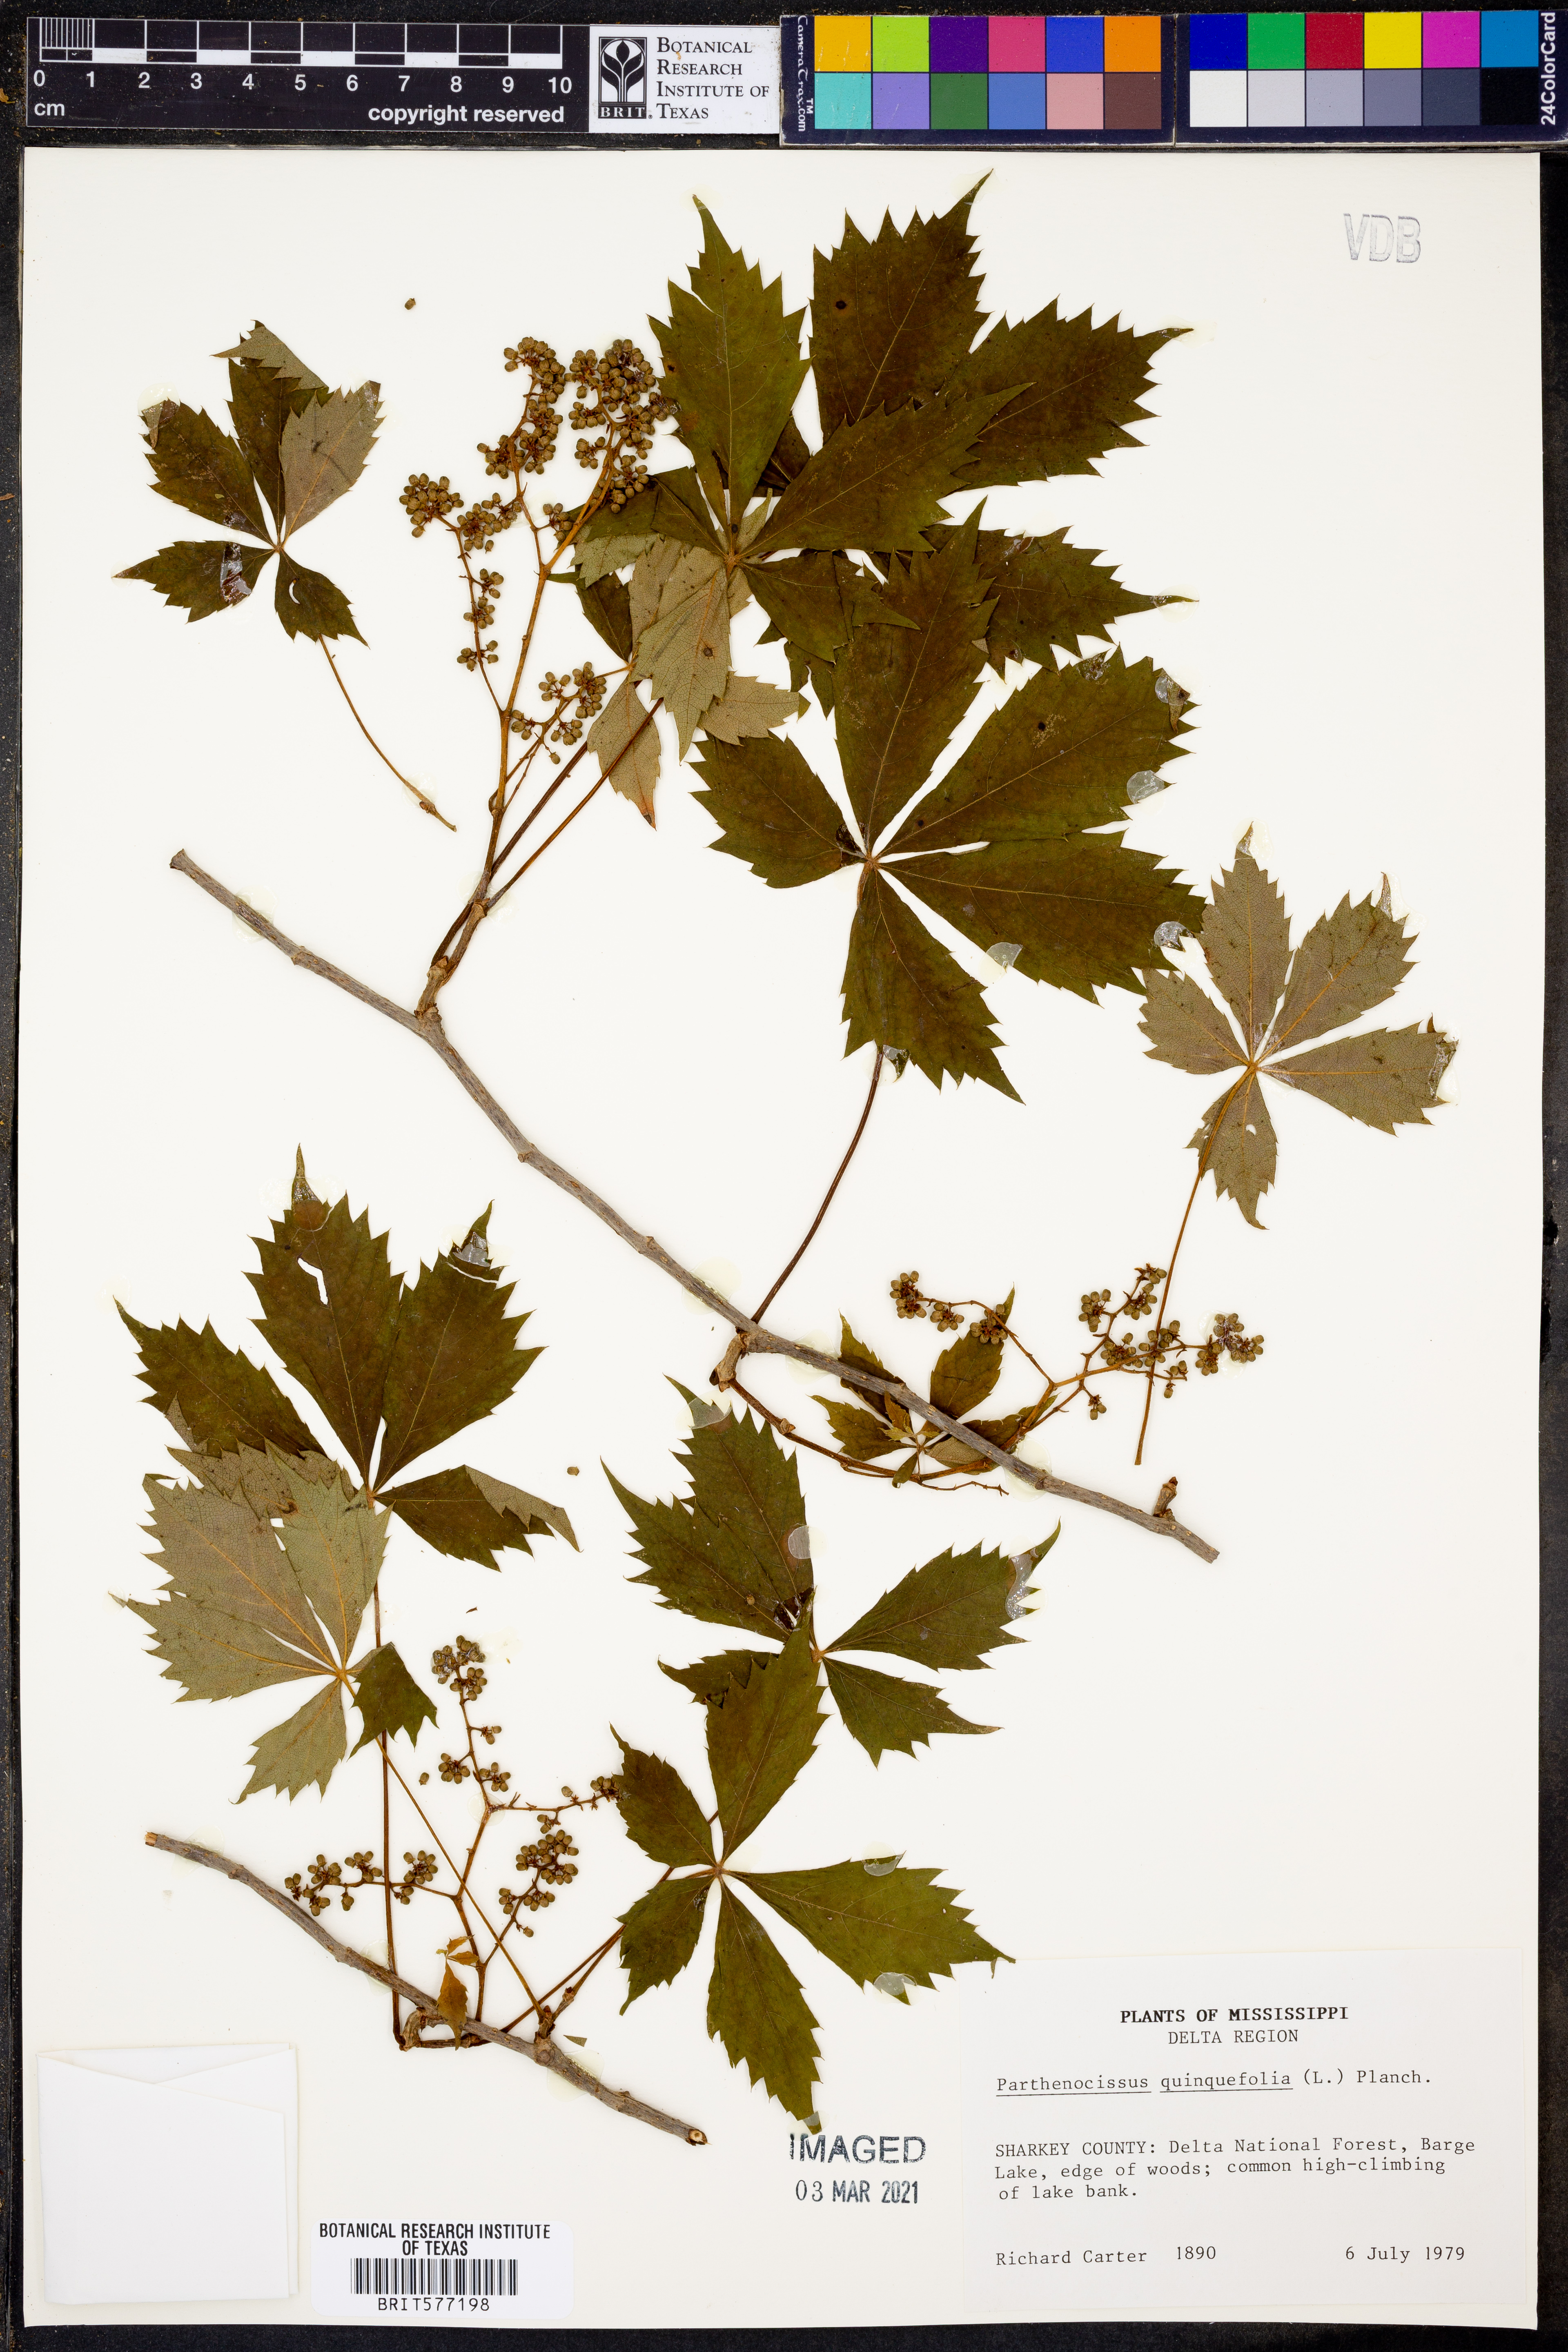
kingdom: Plantae
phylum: Tracheophyta
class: Magnoliopsida
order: Vitales
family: Vitaceae
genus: Parthenocissus
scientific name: Parthenocissus quinquefolia
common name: Virginia-creeper
